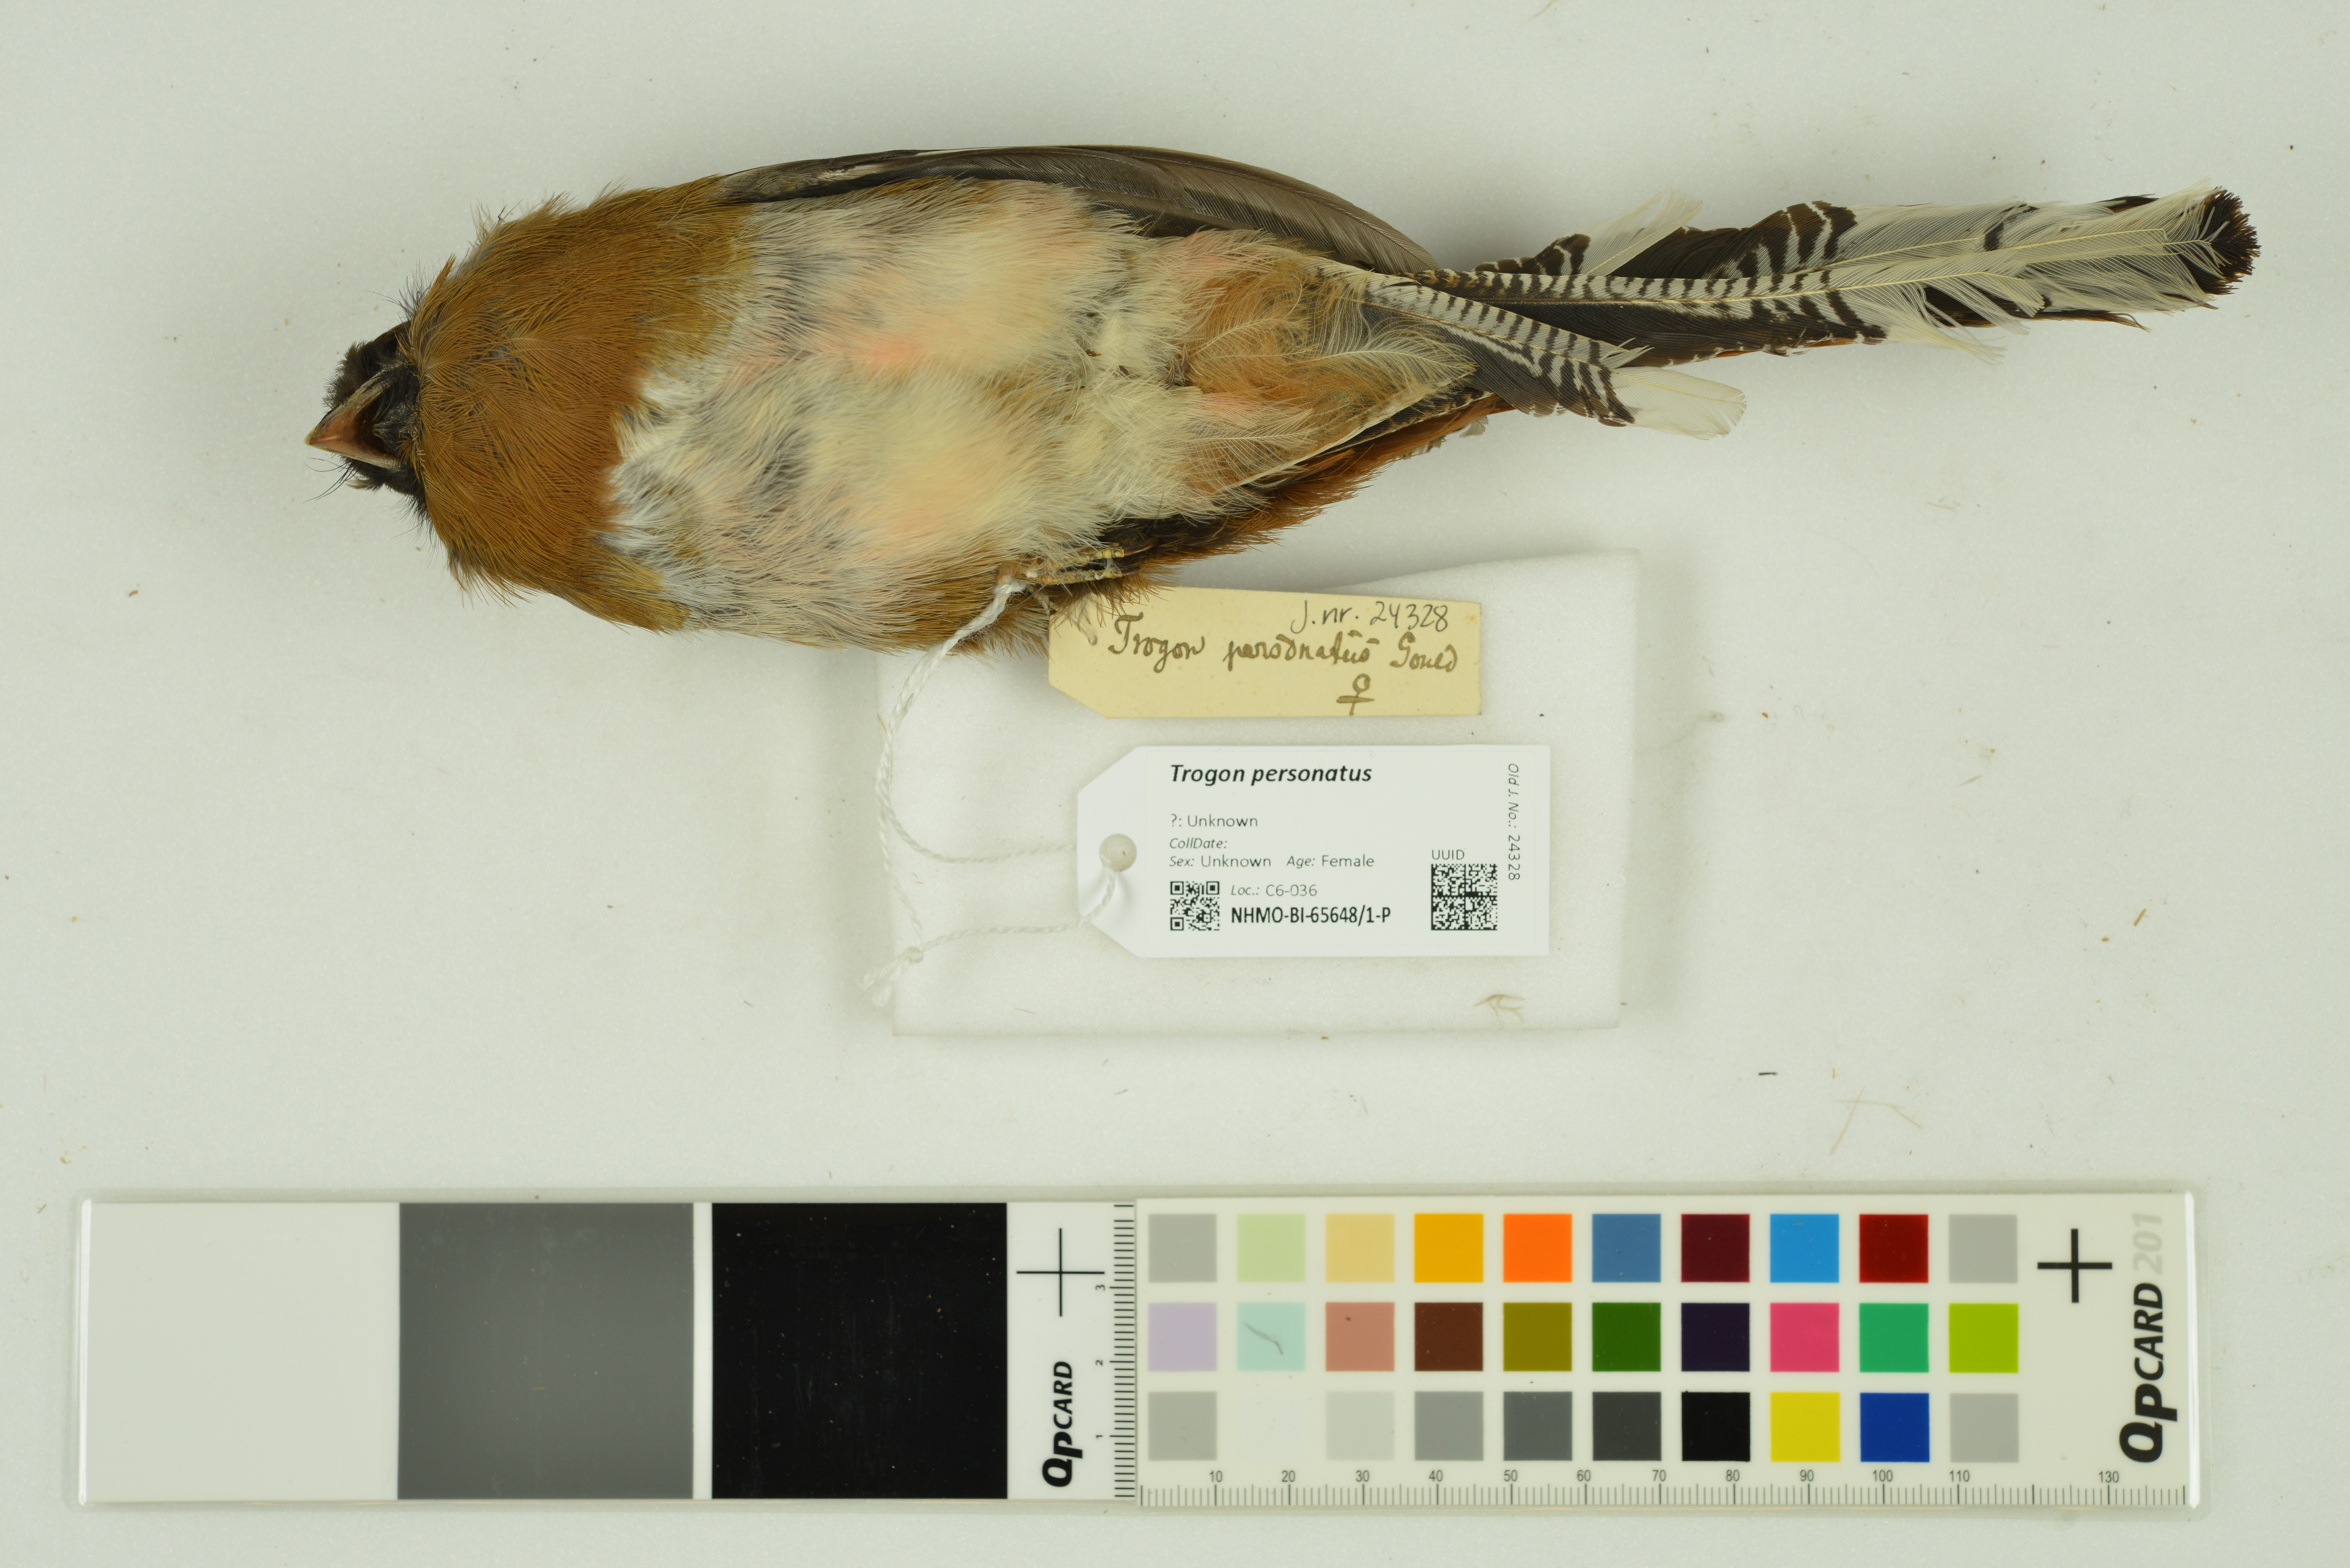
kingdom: Animalia
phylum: Chordata
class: Aves
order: Trogoniformes
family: Trogonidae
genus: Trogon
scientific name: Trogon personatus
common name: Masked trogon
